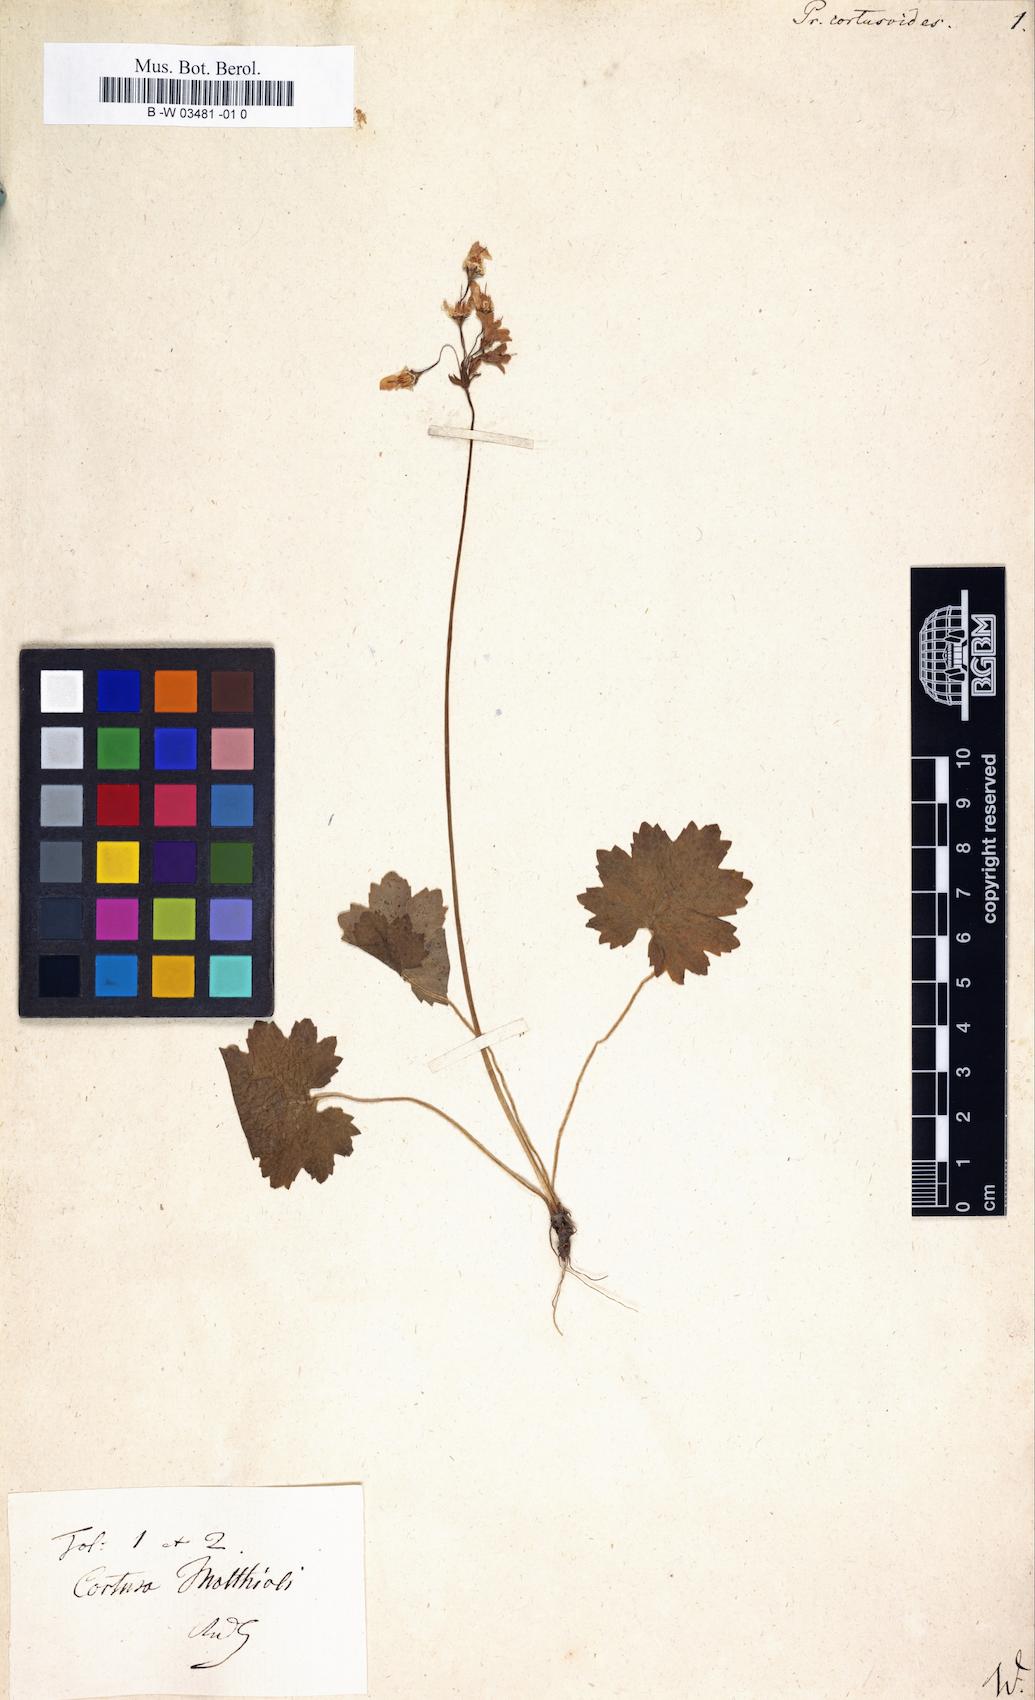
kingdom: Plantae
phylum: Tracheophyta
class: Magnoliopsida
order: Ericales
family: Primulaceae
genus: Primula
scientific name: Primula cortusoides
